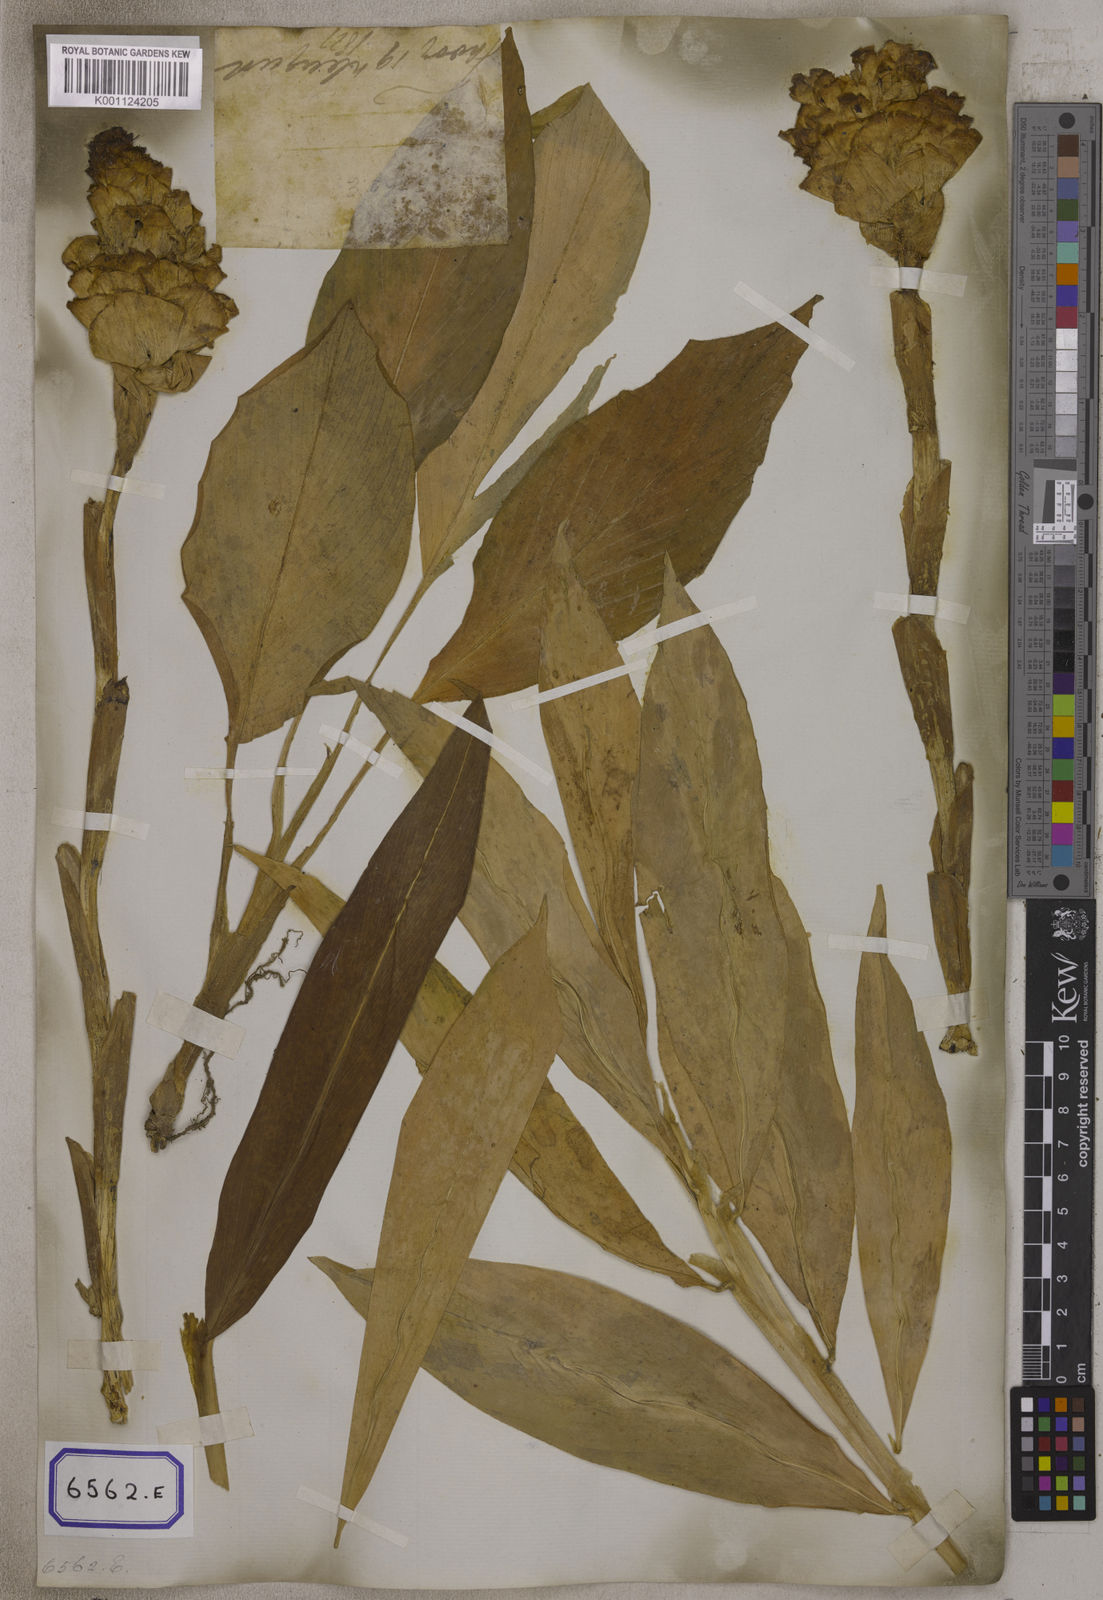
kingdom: Plantae
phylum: Tracheophyta
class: Liliopsida
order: Zingiberales
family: Zingiberaceae
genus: Zingiber
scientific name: Zingiber zerumbet
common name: Bitter ginger
